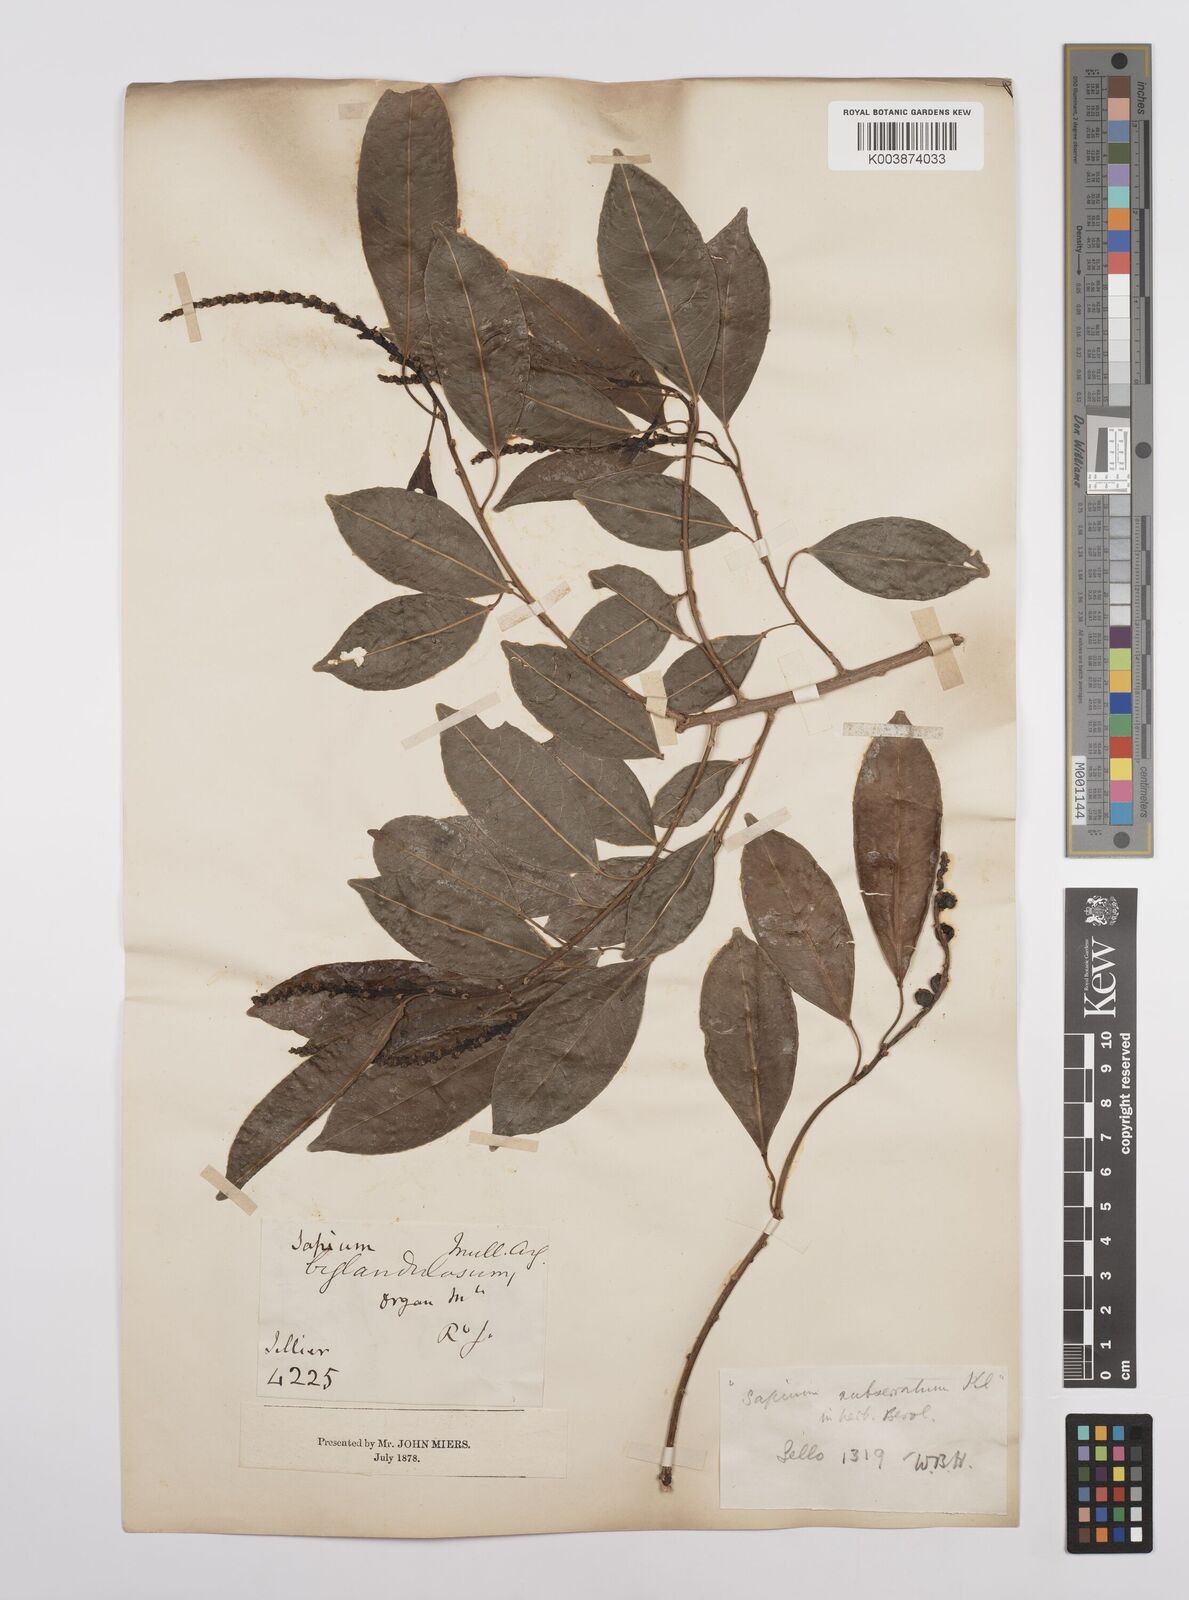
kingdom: Plantae
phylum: Tracheophyta
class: Magnoliopsida
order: Malpighiales
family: Euphorbiaceae
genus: Sapium
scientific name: Sapium glandulosum
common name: Milktree
